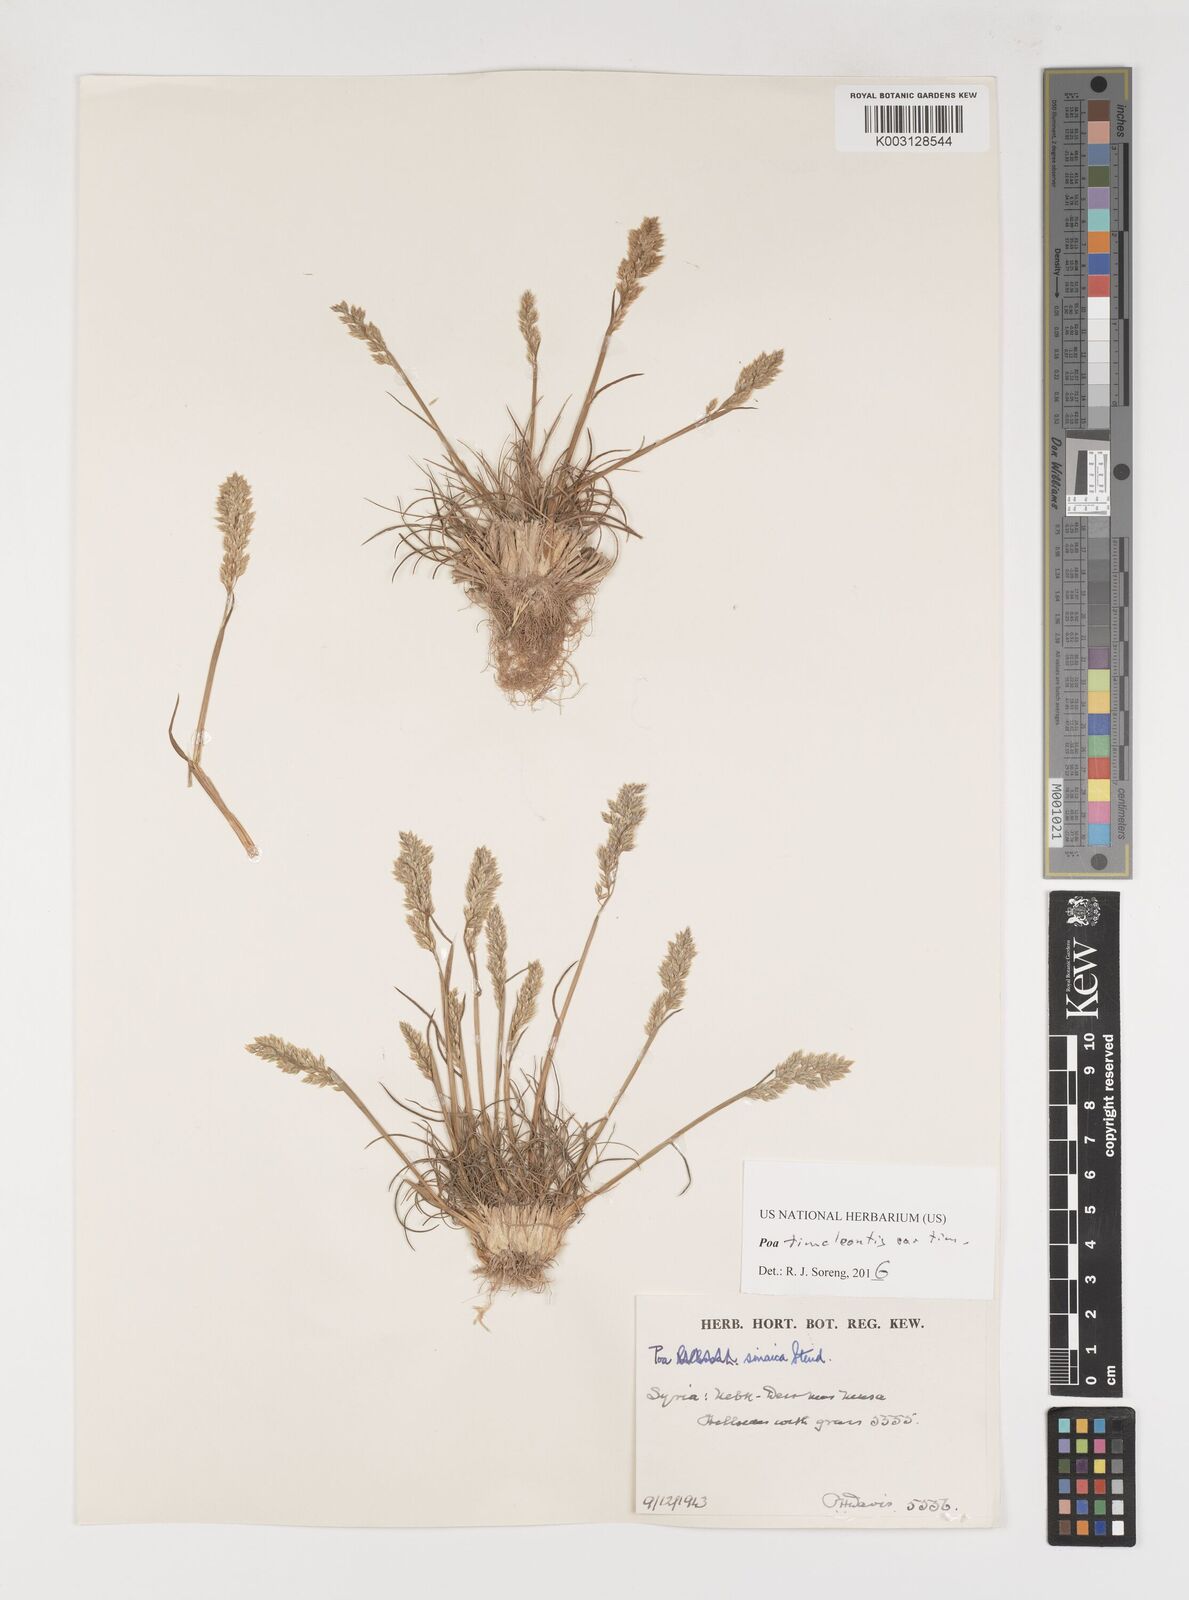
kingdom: Plantae
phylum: Tracheophyta
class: Liliopsida
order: Poales
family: Poaceae
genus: Poa
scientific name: Poa timoleontis
